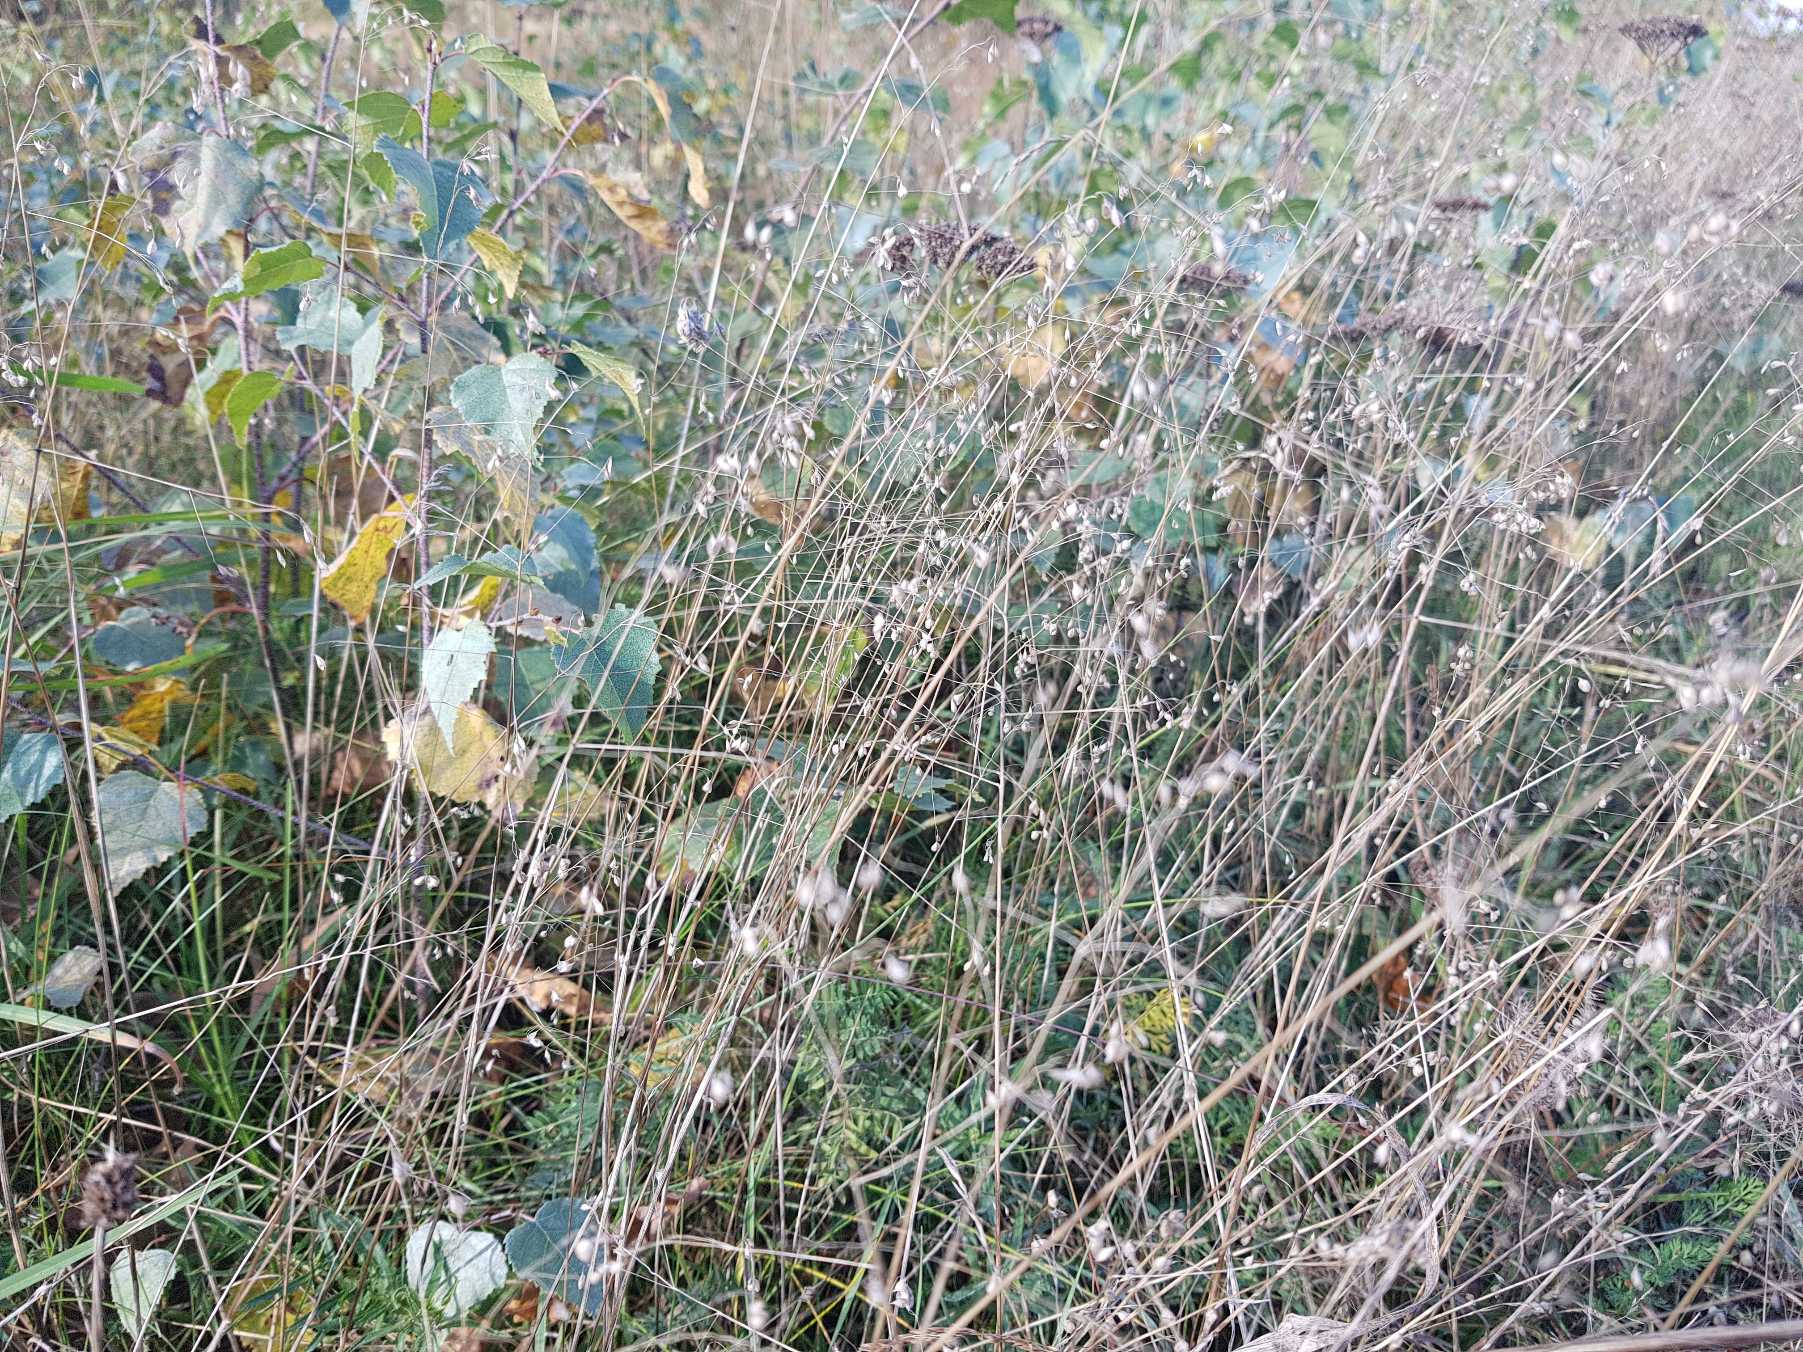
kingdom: Plantae
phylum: Tracheophyta
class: Liliopsida
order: Poales
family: Poaceae
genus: Briza
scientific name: Briza media
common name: Hjertegræs
